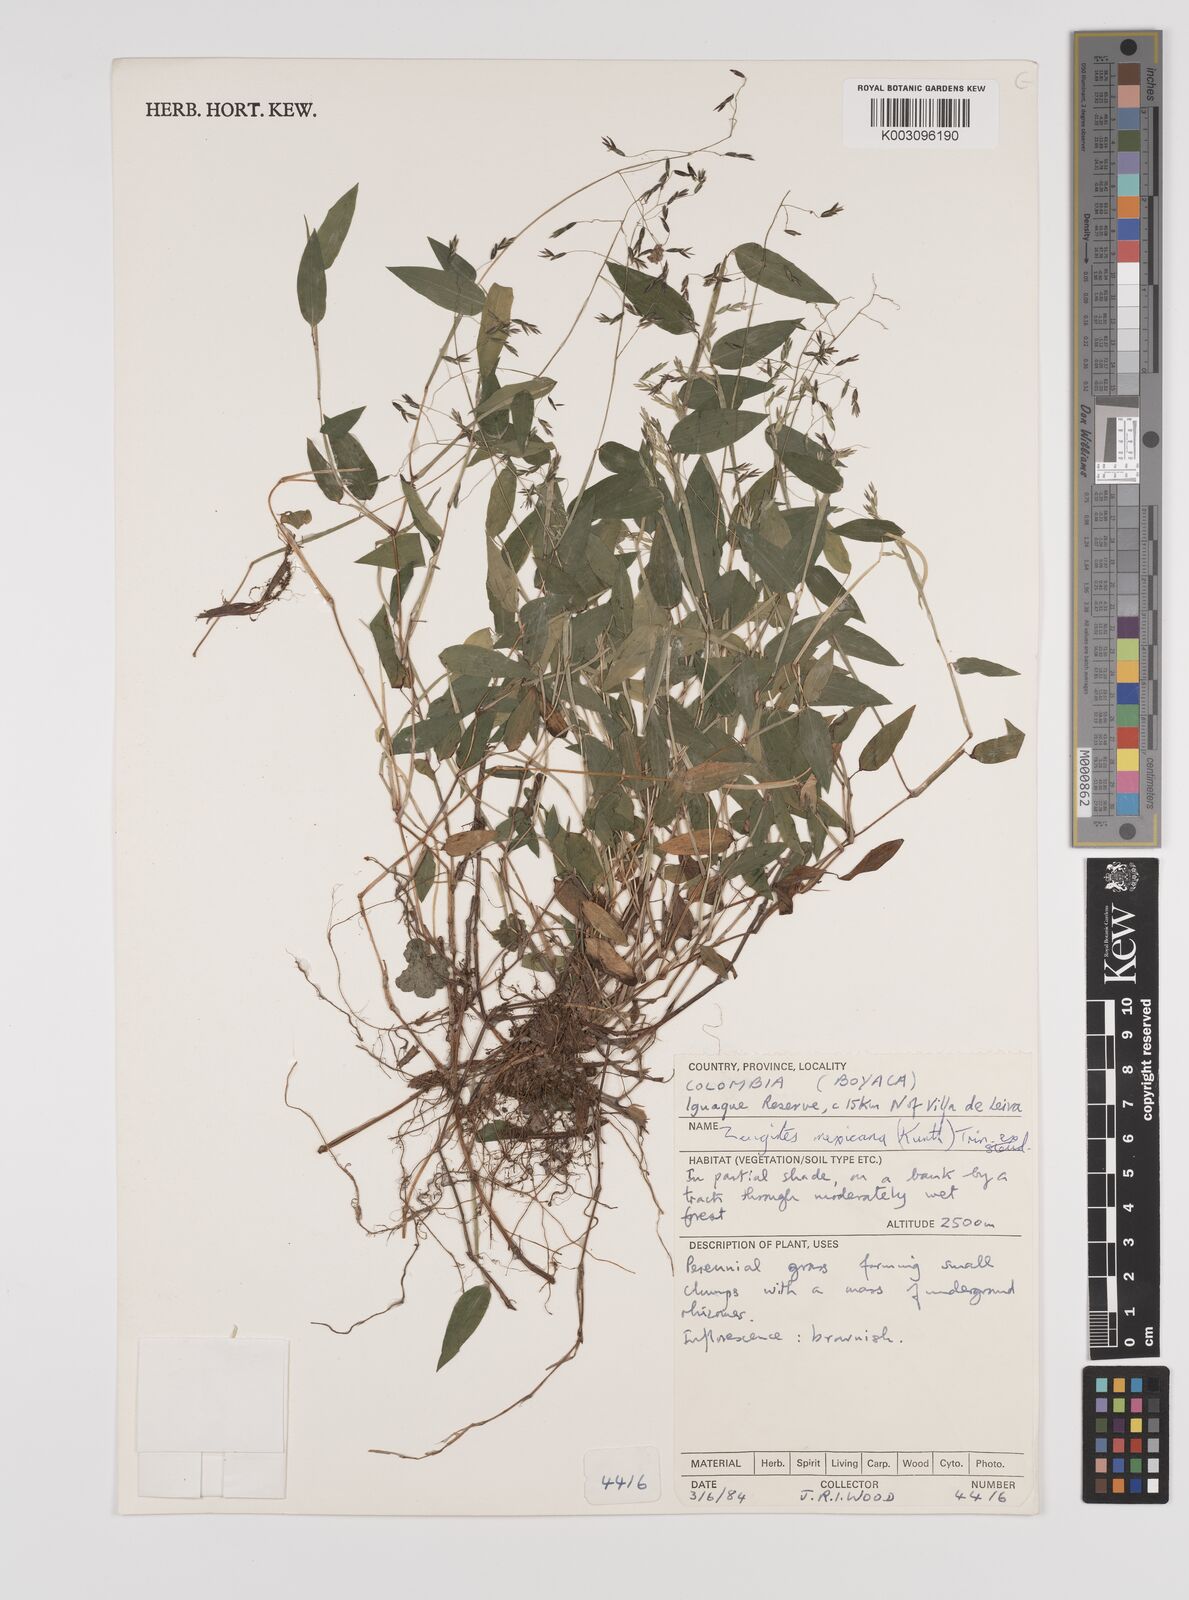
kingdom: Plantae
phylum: Tracheophyta
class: Liliopsida
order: Poales
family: Poaceae
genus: Zeugites
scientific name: Zeugites americanus
